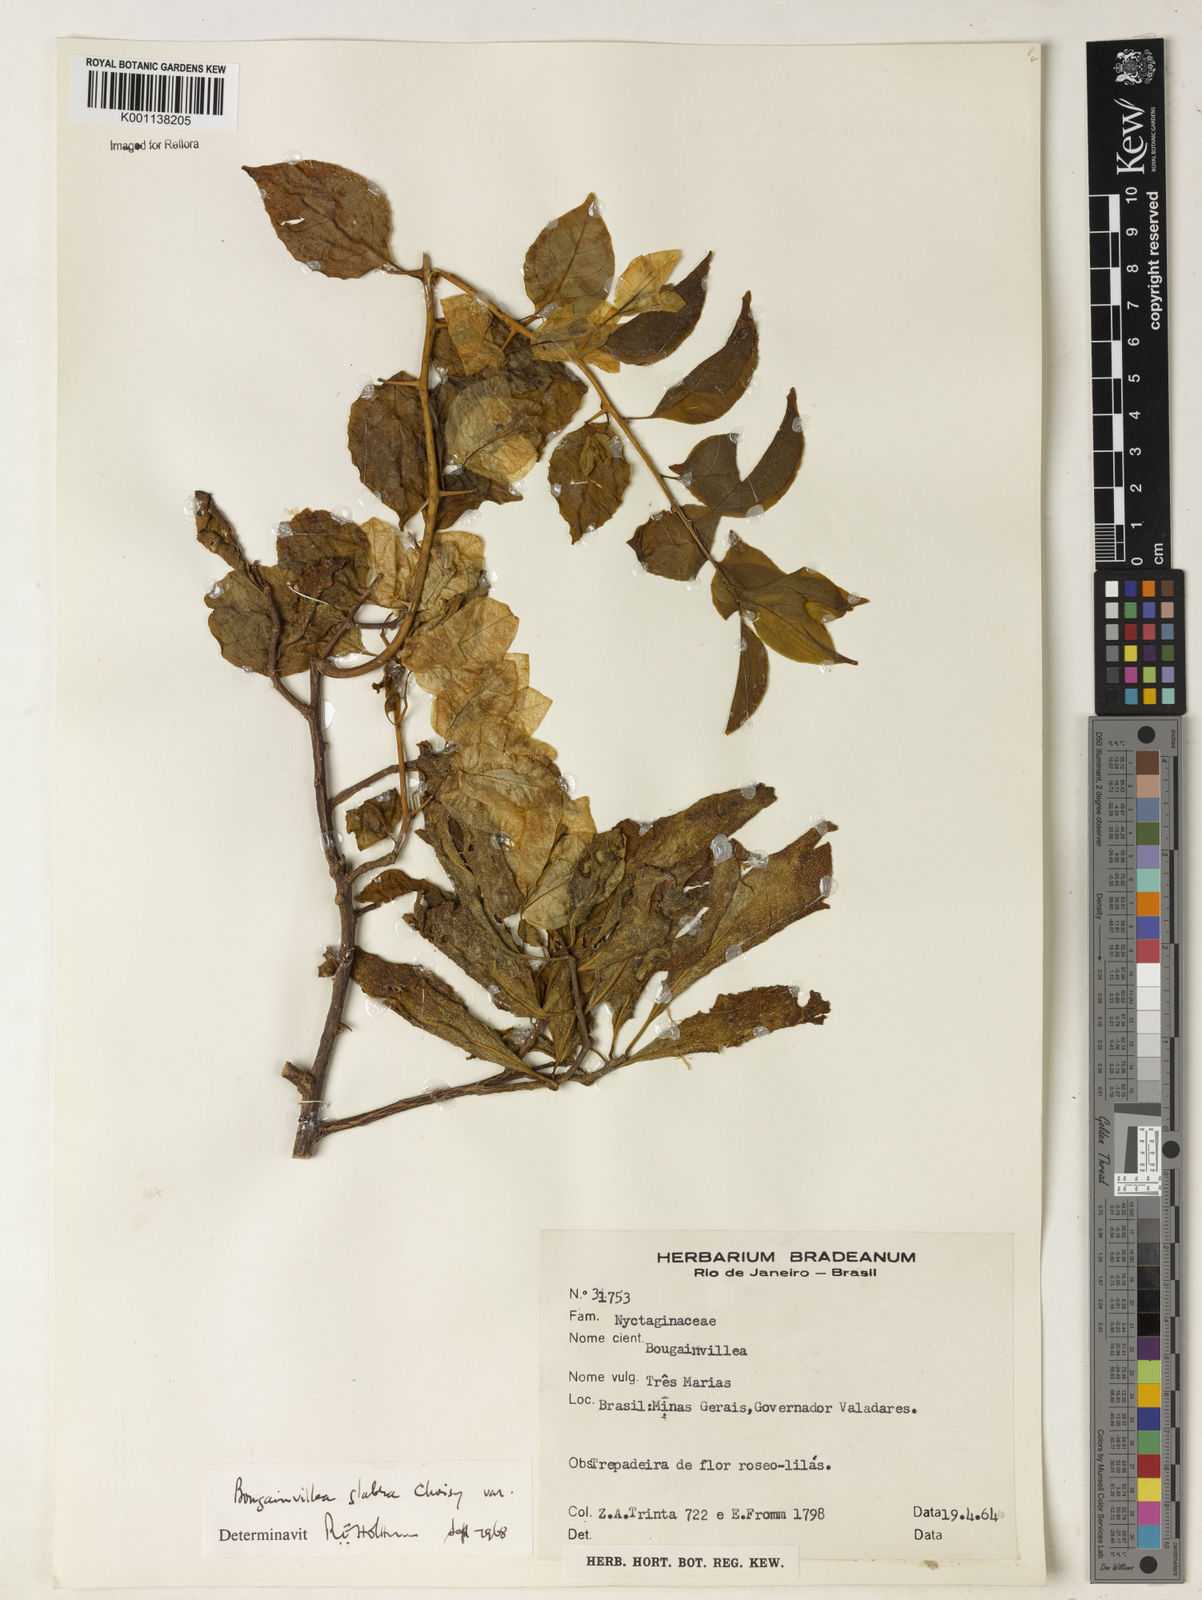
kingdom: Plantae
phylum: Tracheophyta
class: Magnoliopsida
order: Caryophyllales
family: Nyctaginaceae
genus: Bougainvillea
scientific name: Bougainvillea glabra
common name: Paperflower
